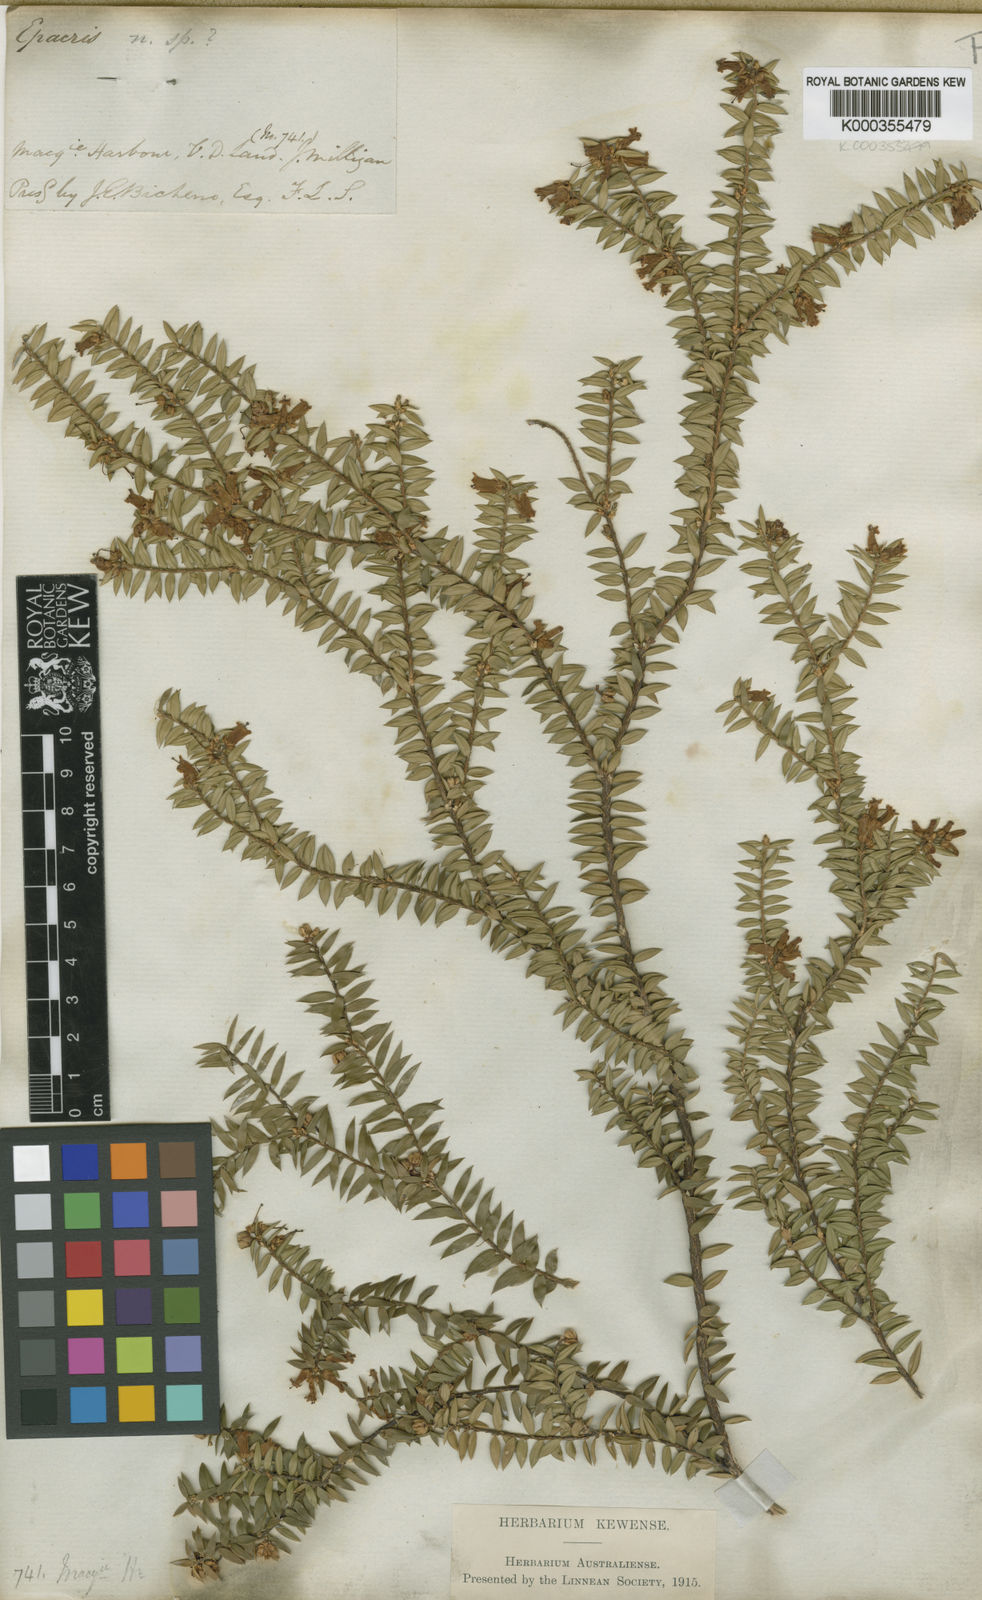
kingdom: Plantae
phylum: Tracheophyta
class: Magnoliopsida
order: Ericales
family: Ericaceae
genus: Epacris
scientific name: Epacris
